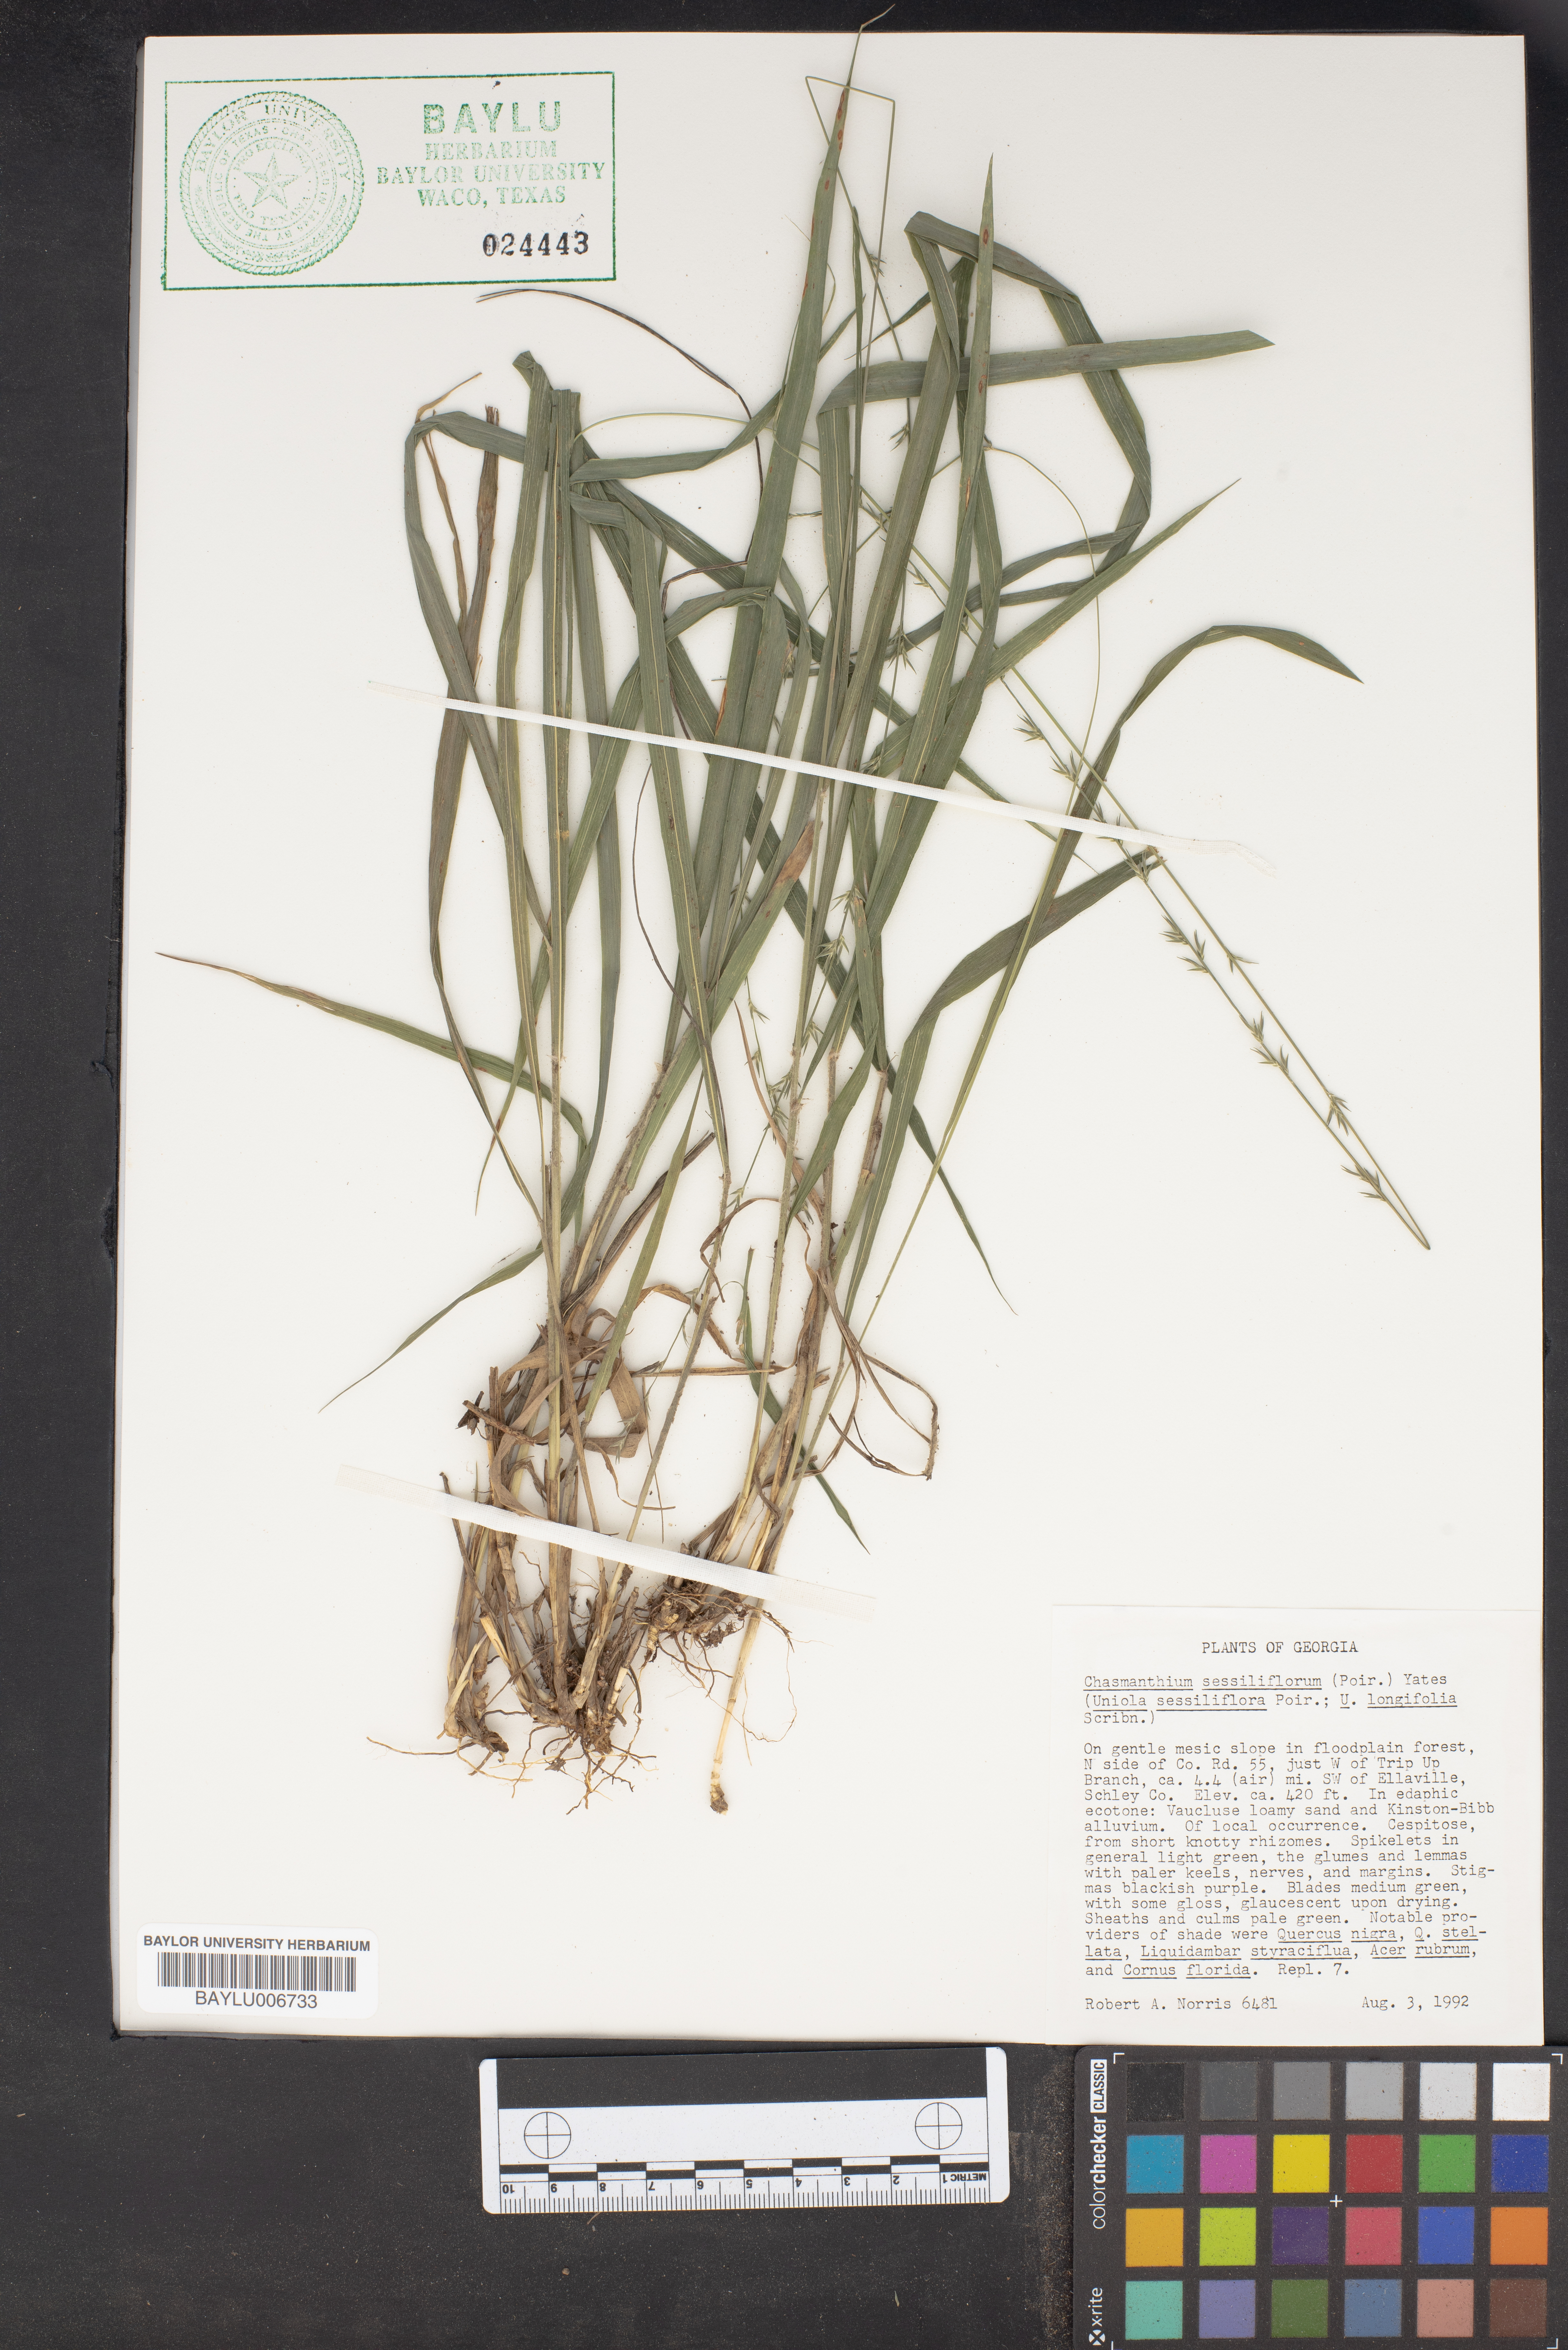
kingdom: Plantae
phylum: Tracheophyta
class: Liliopsida
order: Poales
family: Poaceae
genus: Chasmanthium
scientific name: Chasmanthium laxum
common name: Slender chasmanthium
